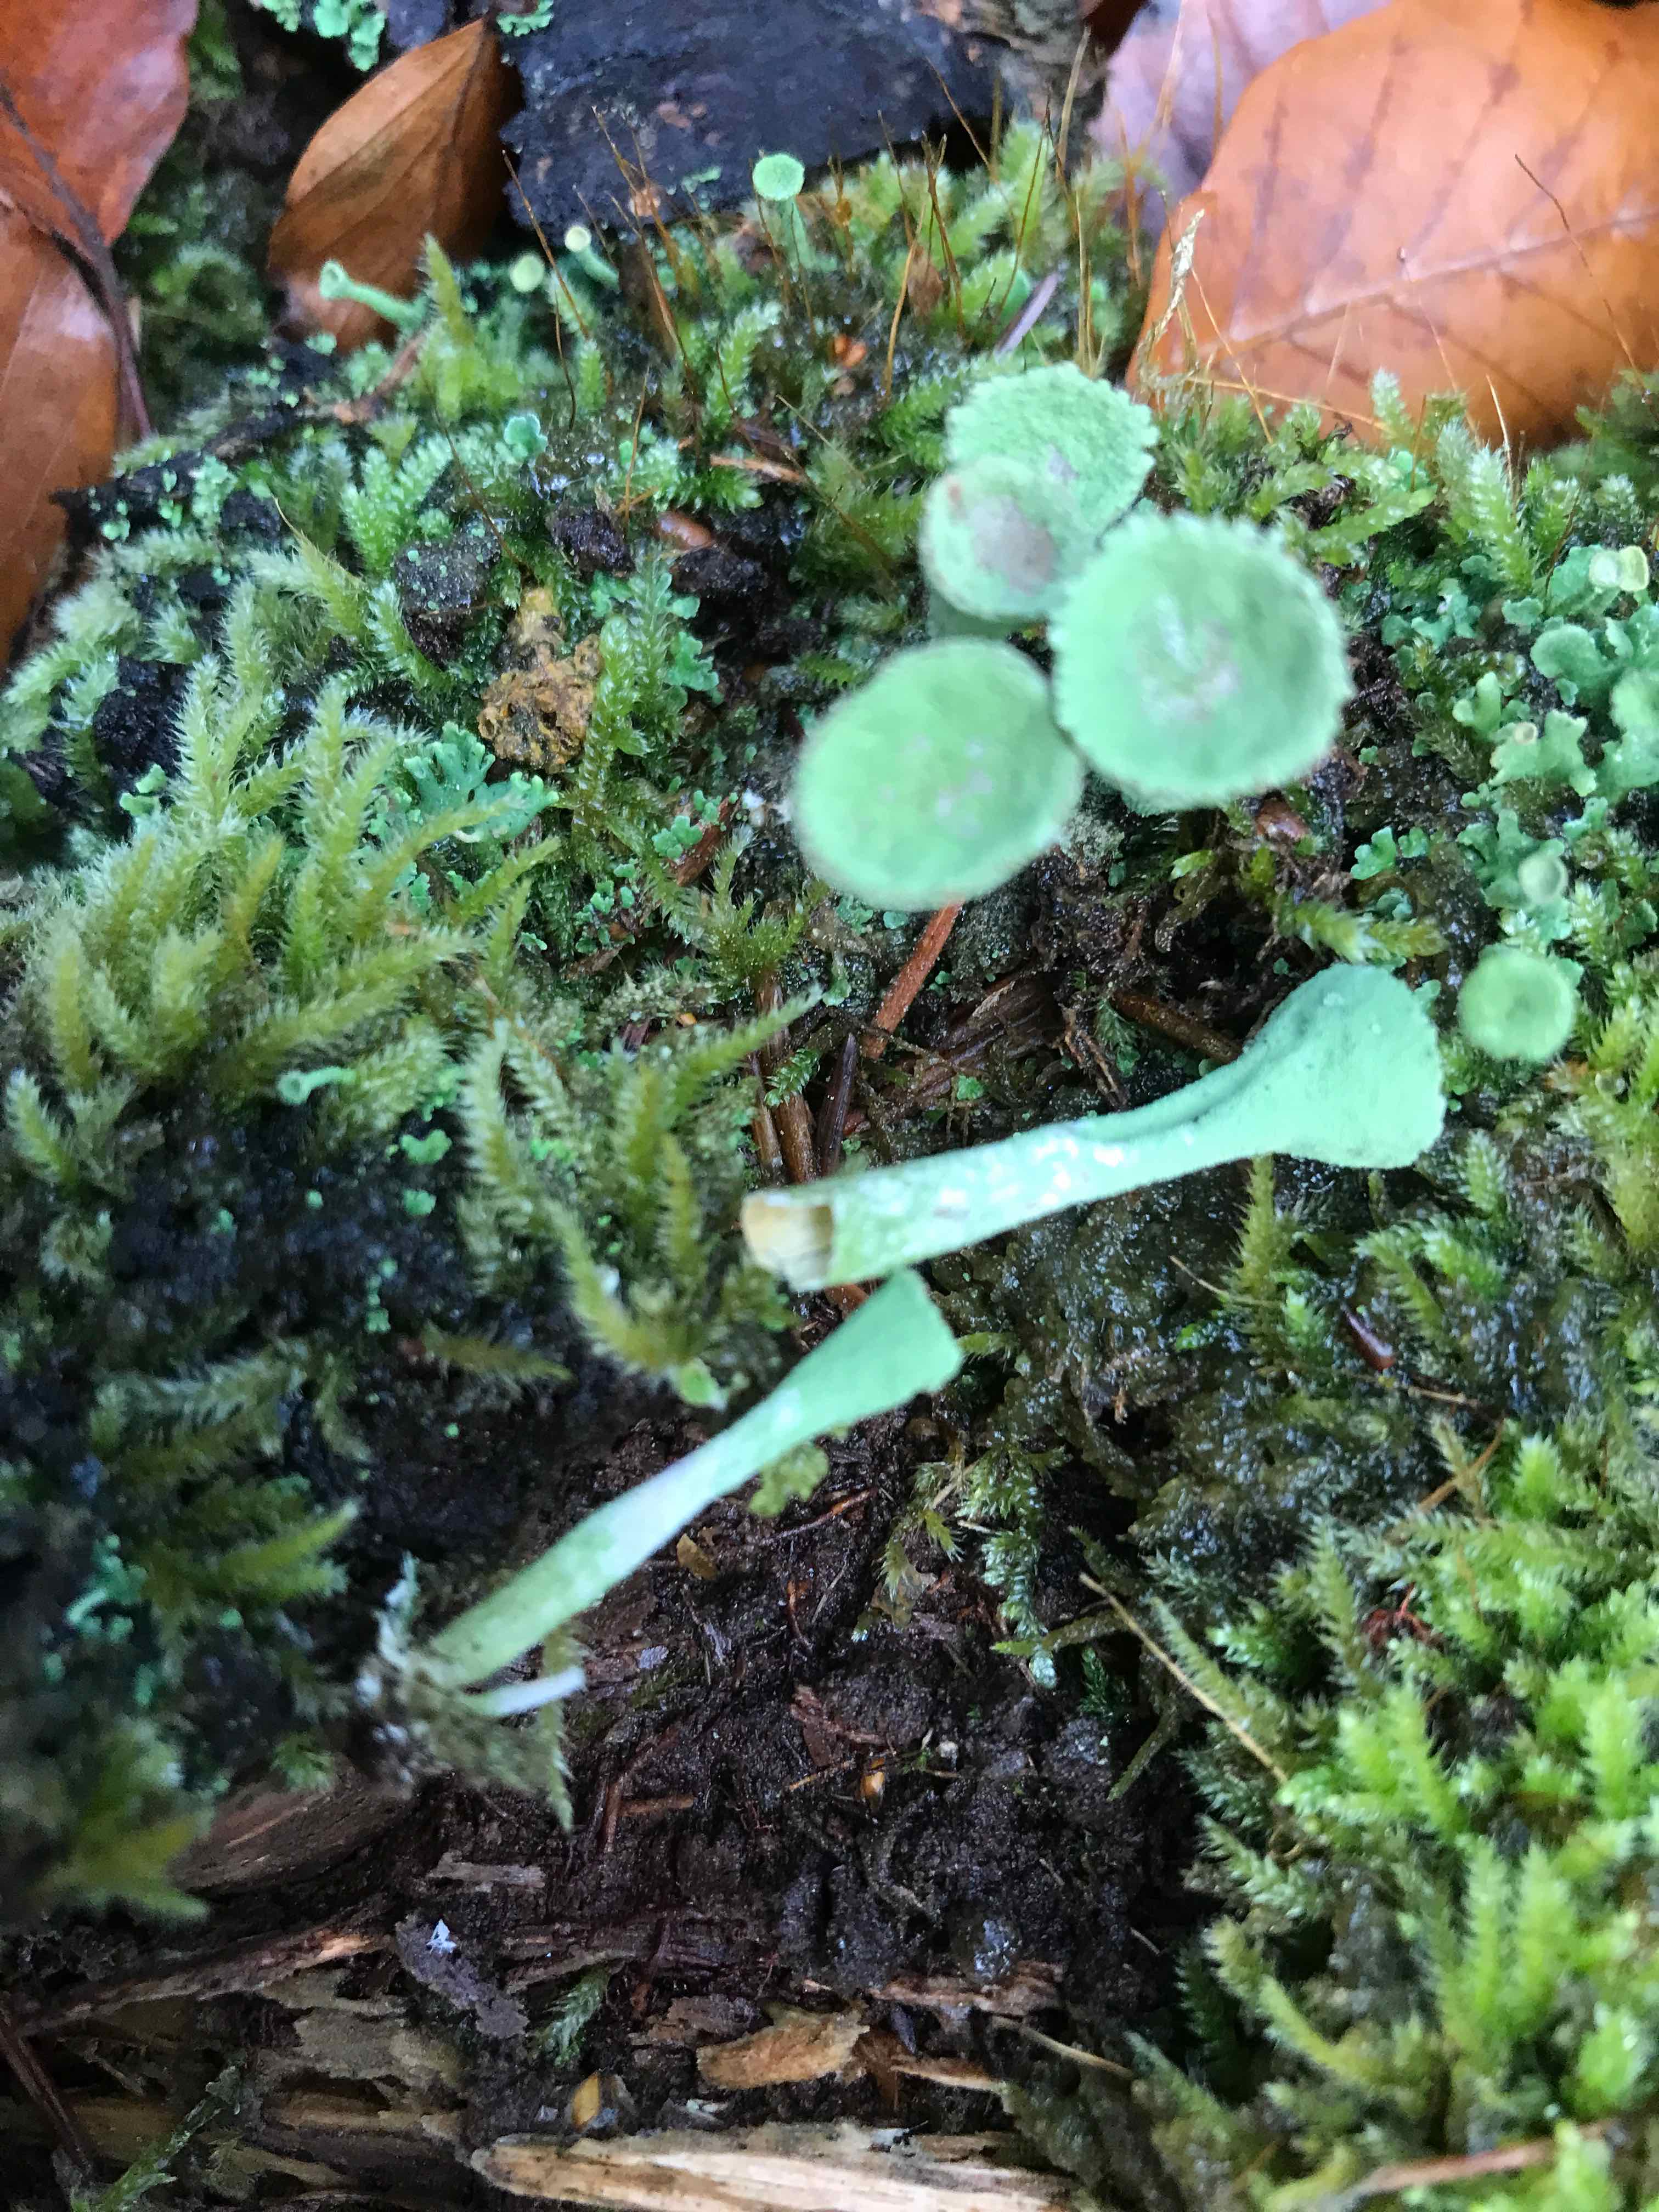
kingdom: Fungi
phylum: Ascomycota
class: Lecanoromycetes
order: Lecanorales
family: Cladoniaceae
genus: Cladonia
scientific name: Cladonia fimbriata
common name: bleggrøn bægerlav
